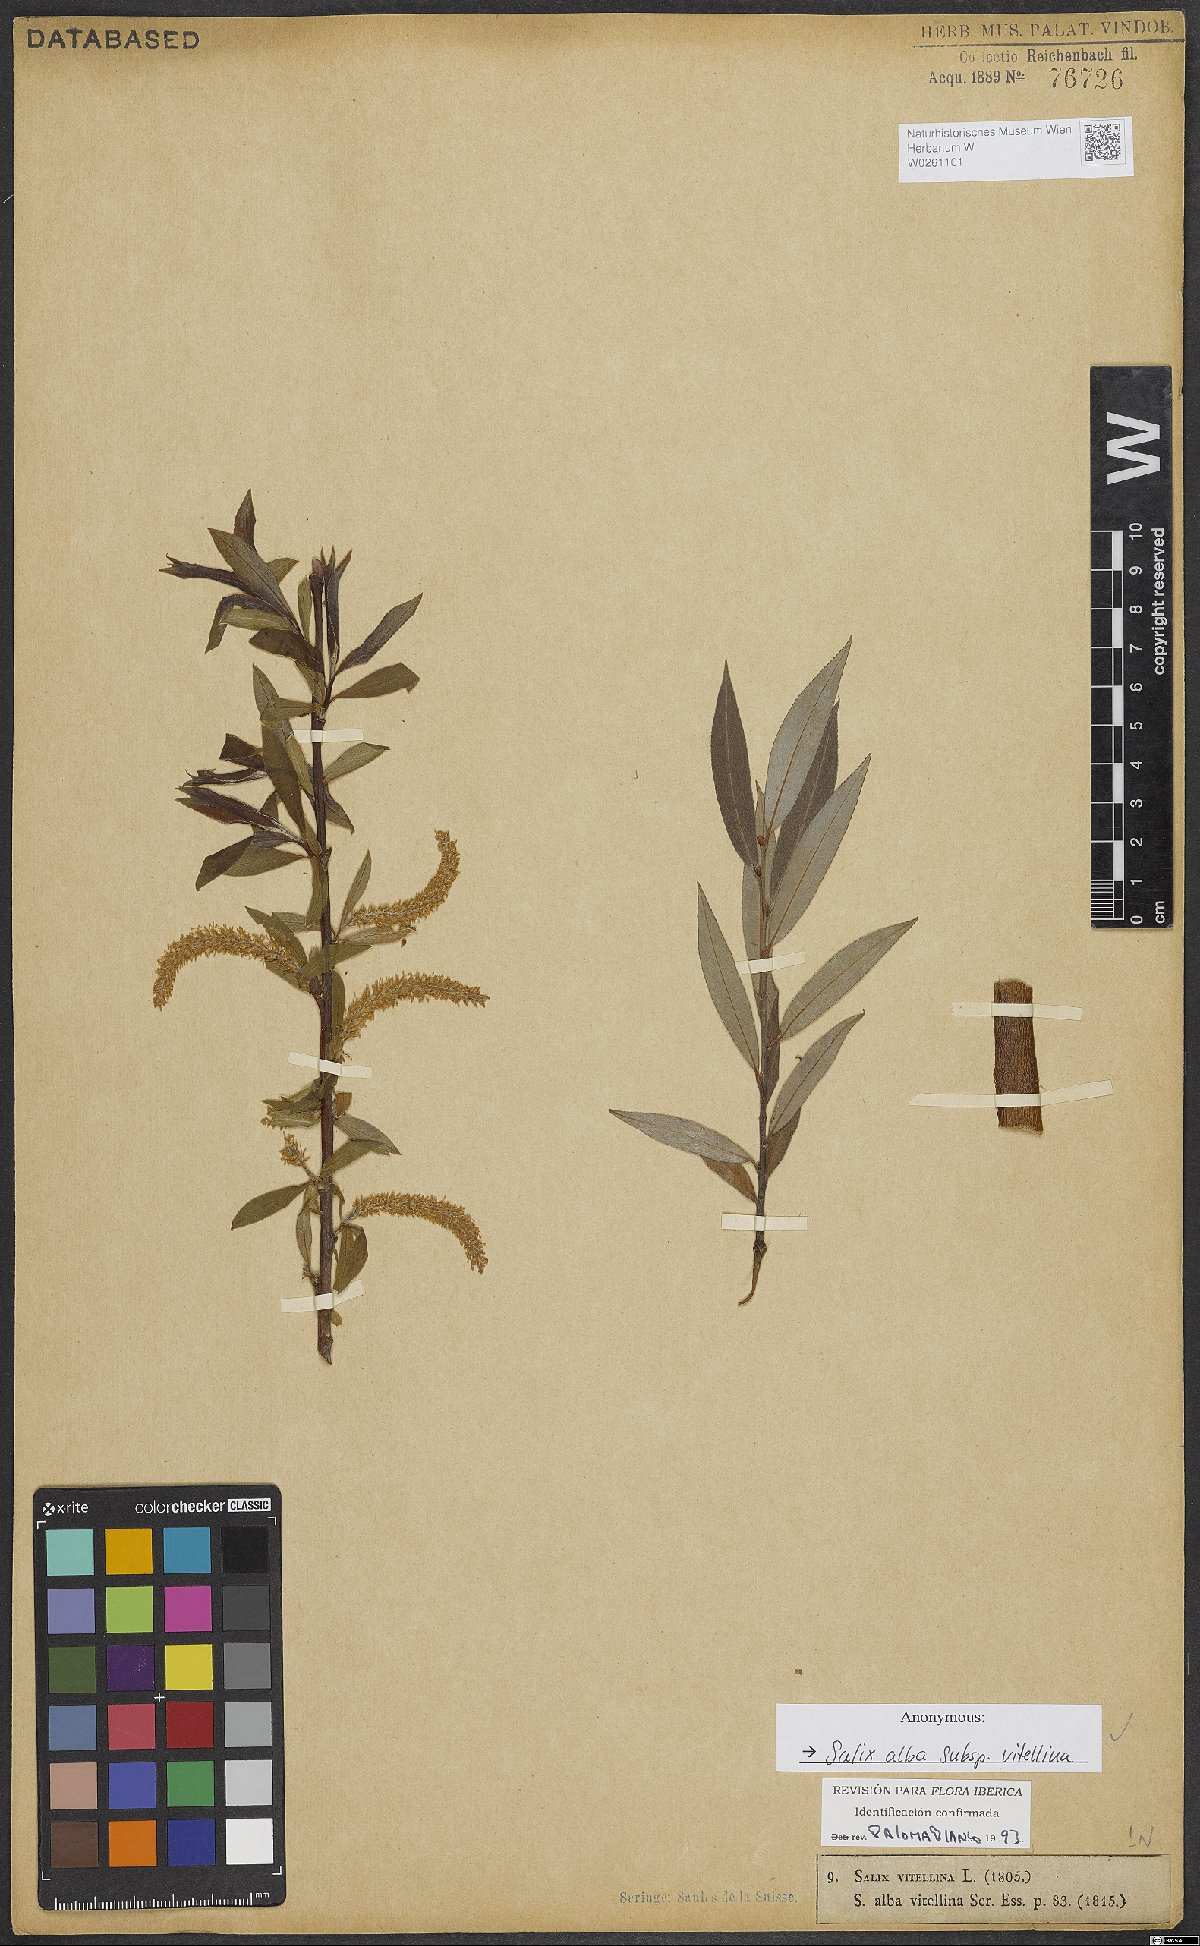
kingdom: Plantae
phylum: Tracheophyta
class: Magnoliopsida
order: Malpighiales
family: Salicaceae
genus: Salix
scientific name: Salix alba
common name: White willow
